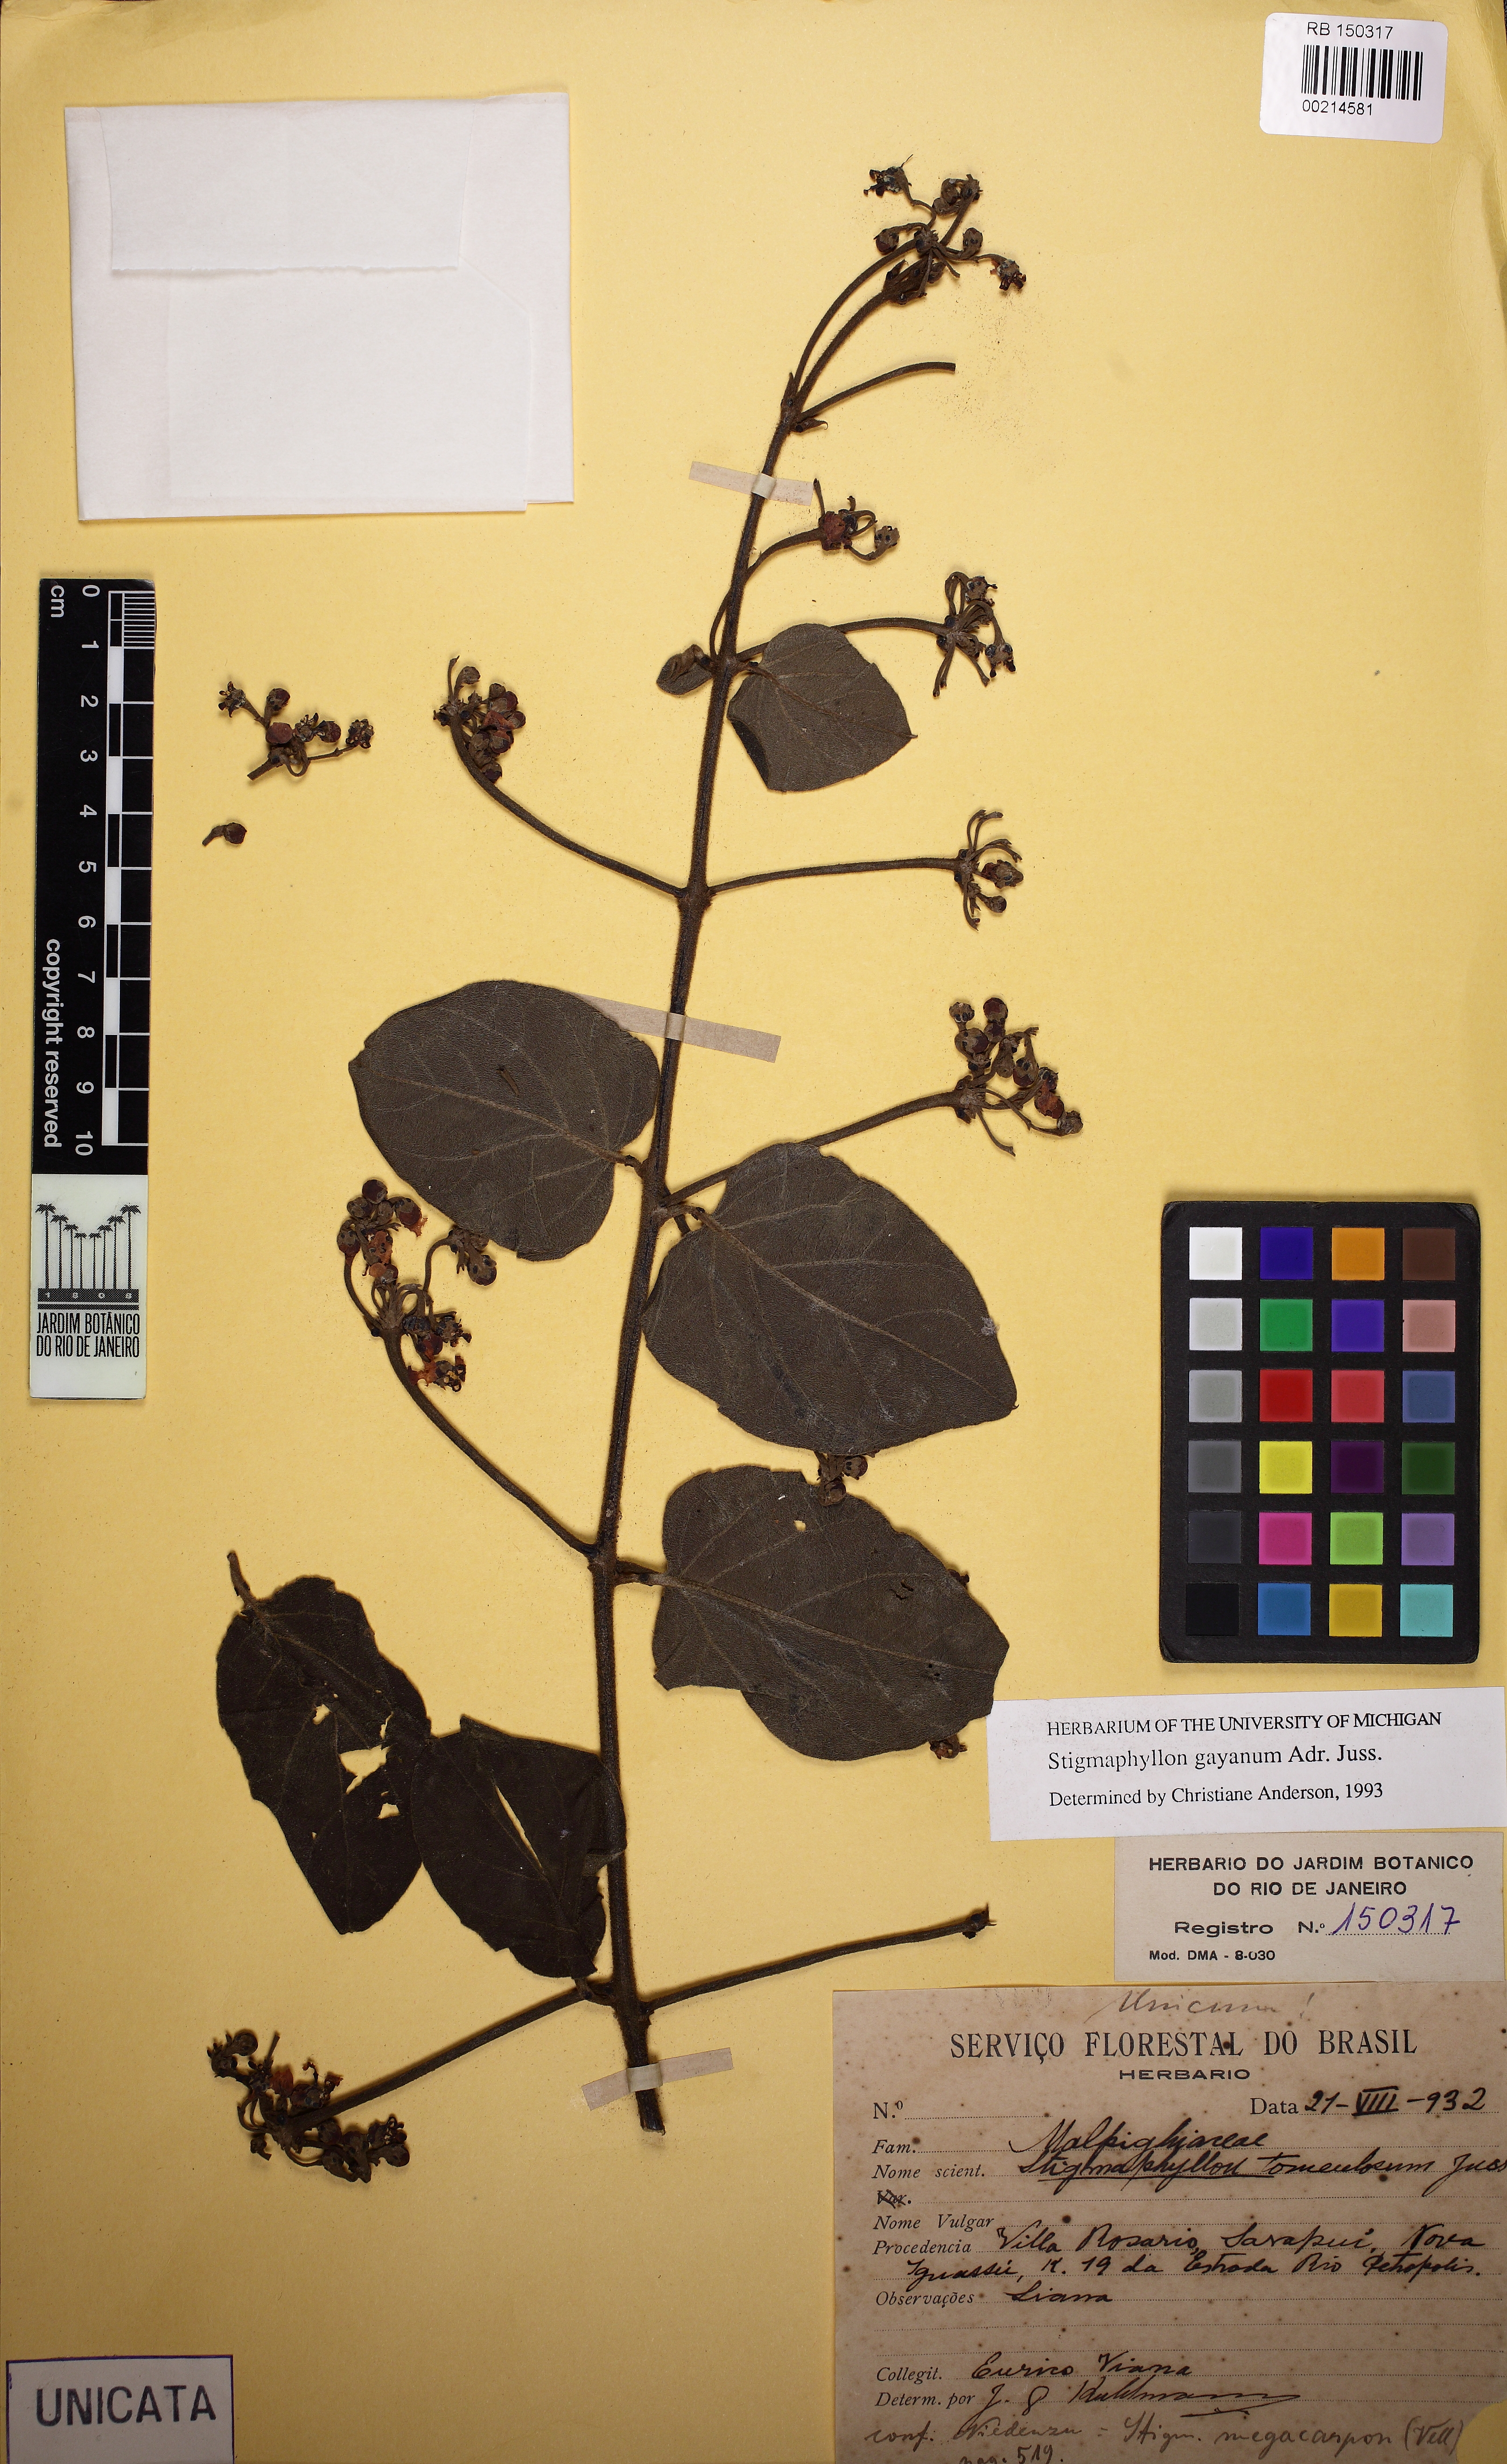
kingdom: Plantae
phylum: Tracheophyta
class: Magnoliopsida
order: Malpighiales
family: Malpighiaceae
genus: Stigmaphyllon
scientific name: Stigmaphyllon gayanum
